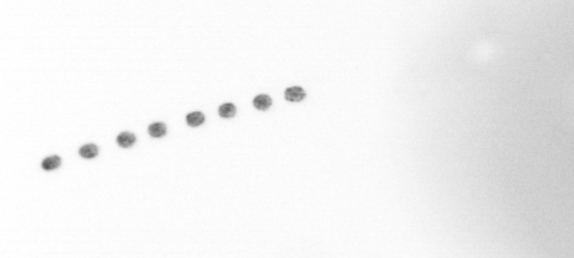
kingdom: Chromista
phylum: Ochrophyta
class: Bacillariophyceae
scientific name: Bacillariophyceae
